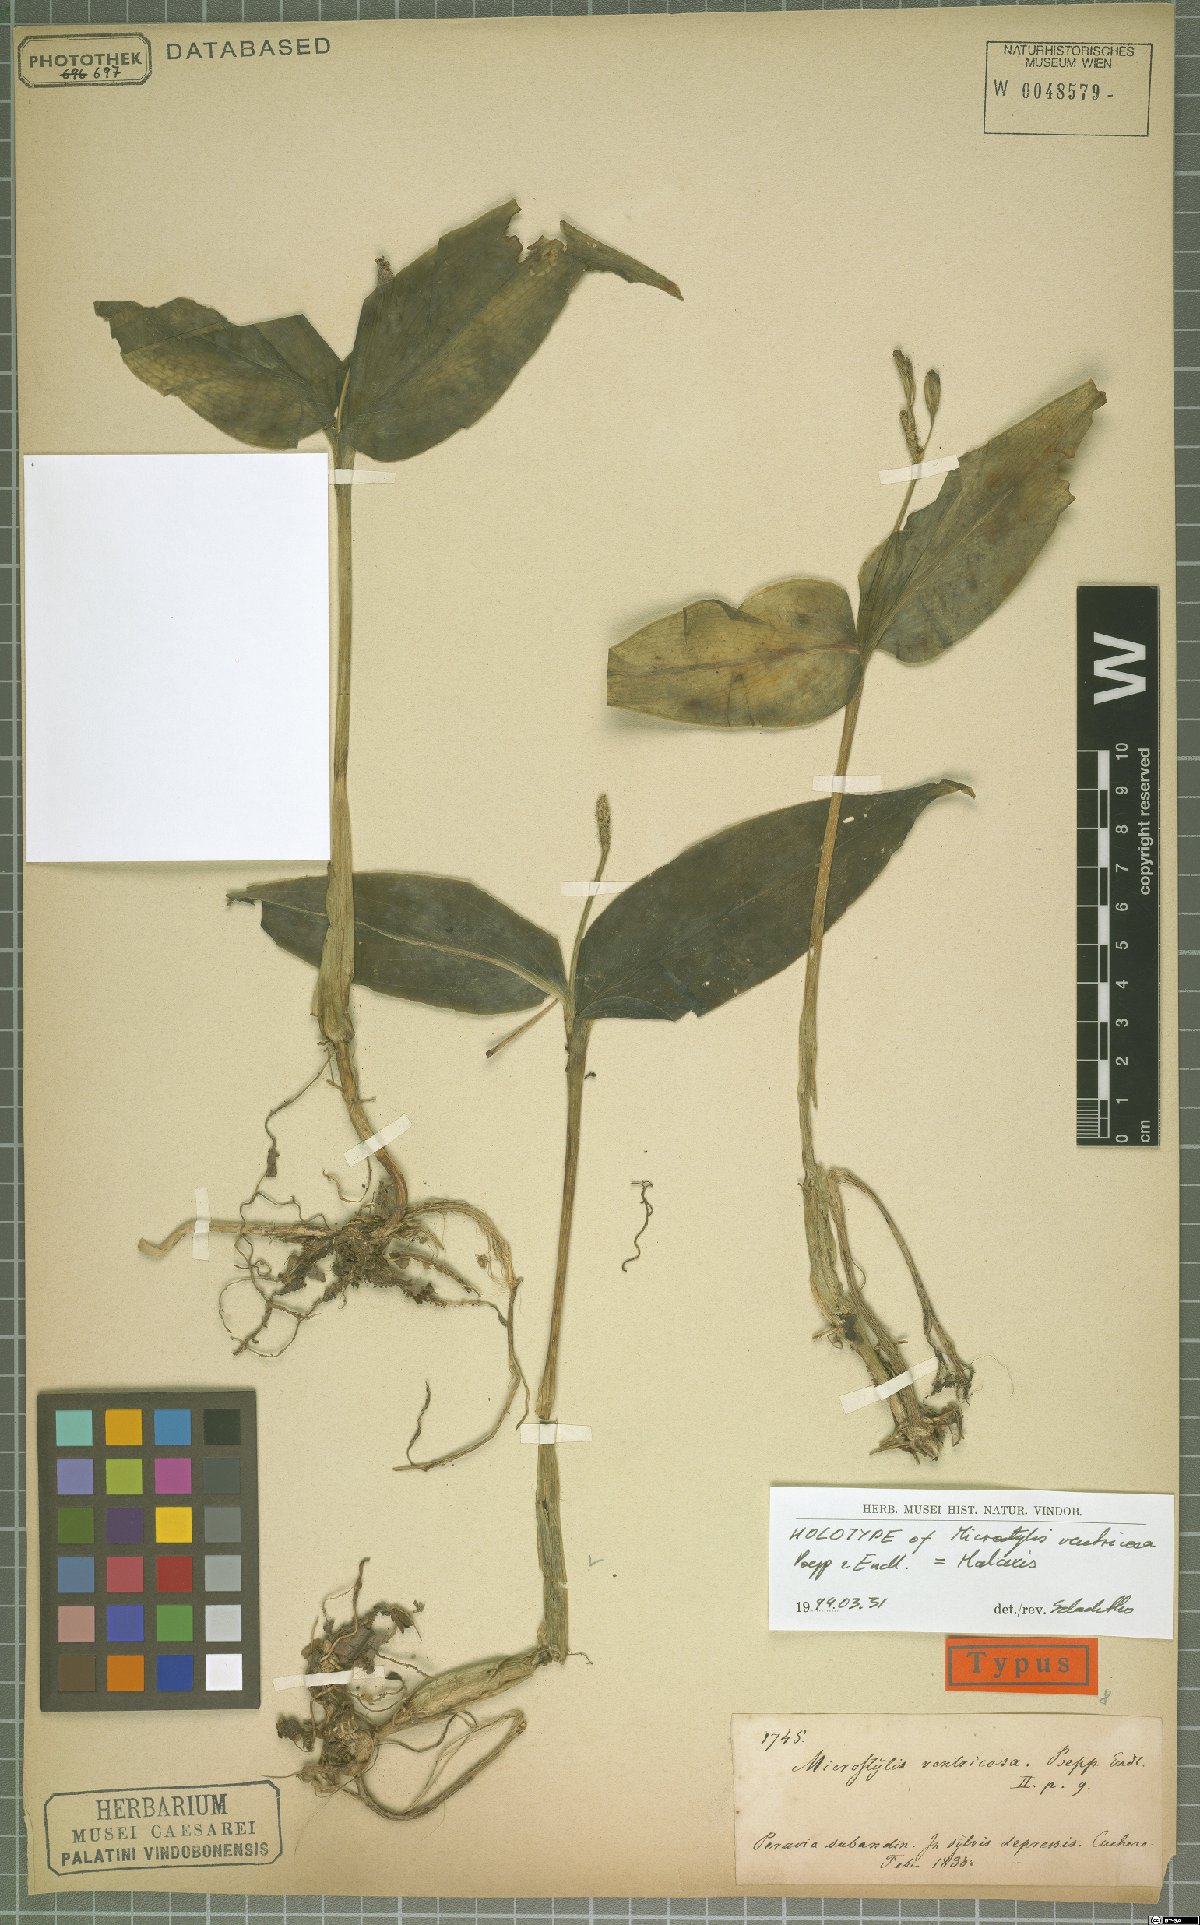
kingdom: Plantae
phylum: Tracheophyta
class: Liliopsida
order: Asparagales
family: Orchidaceae
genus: Malaxis
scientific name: Malaxis ventricosa
